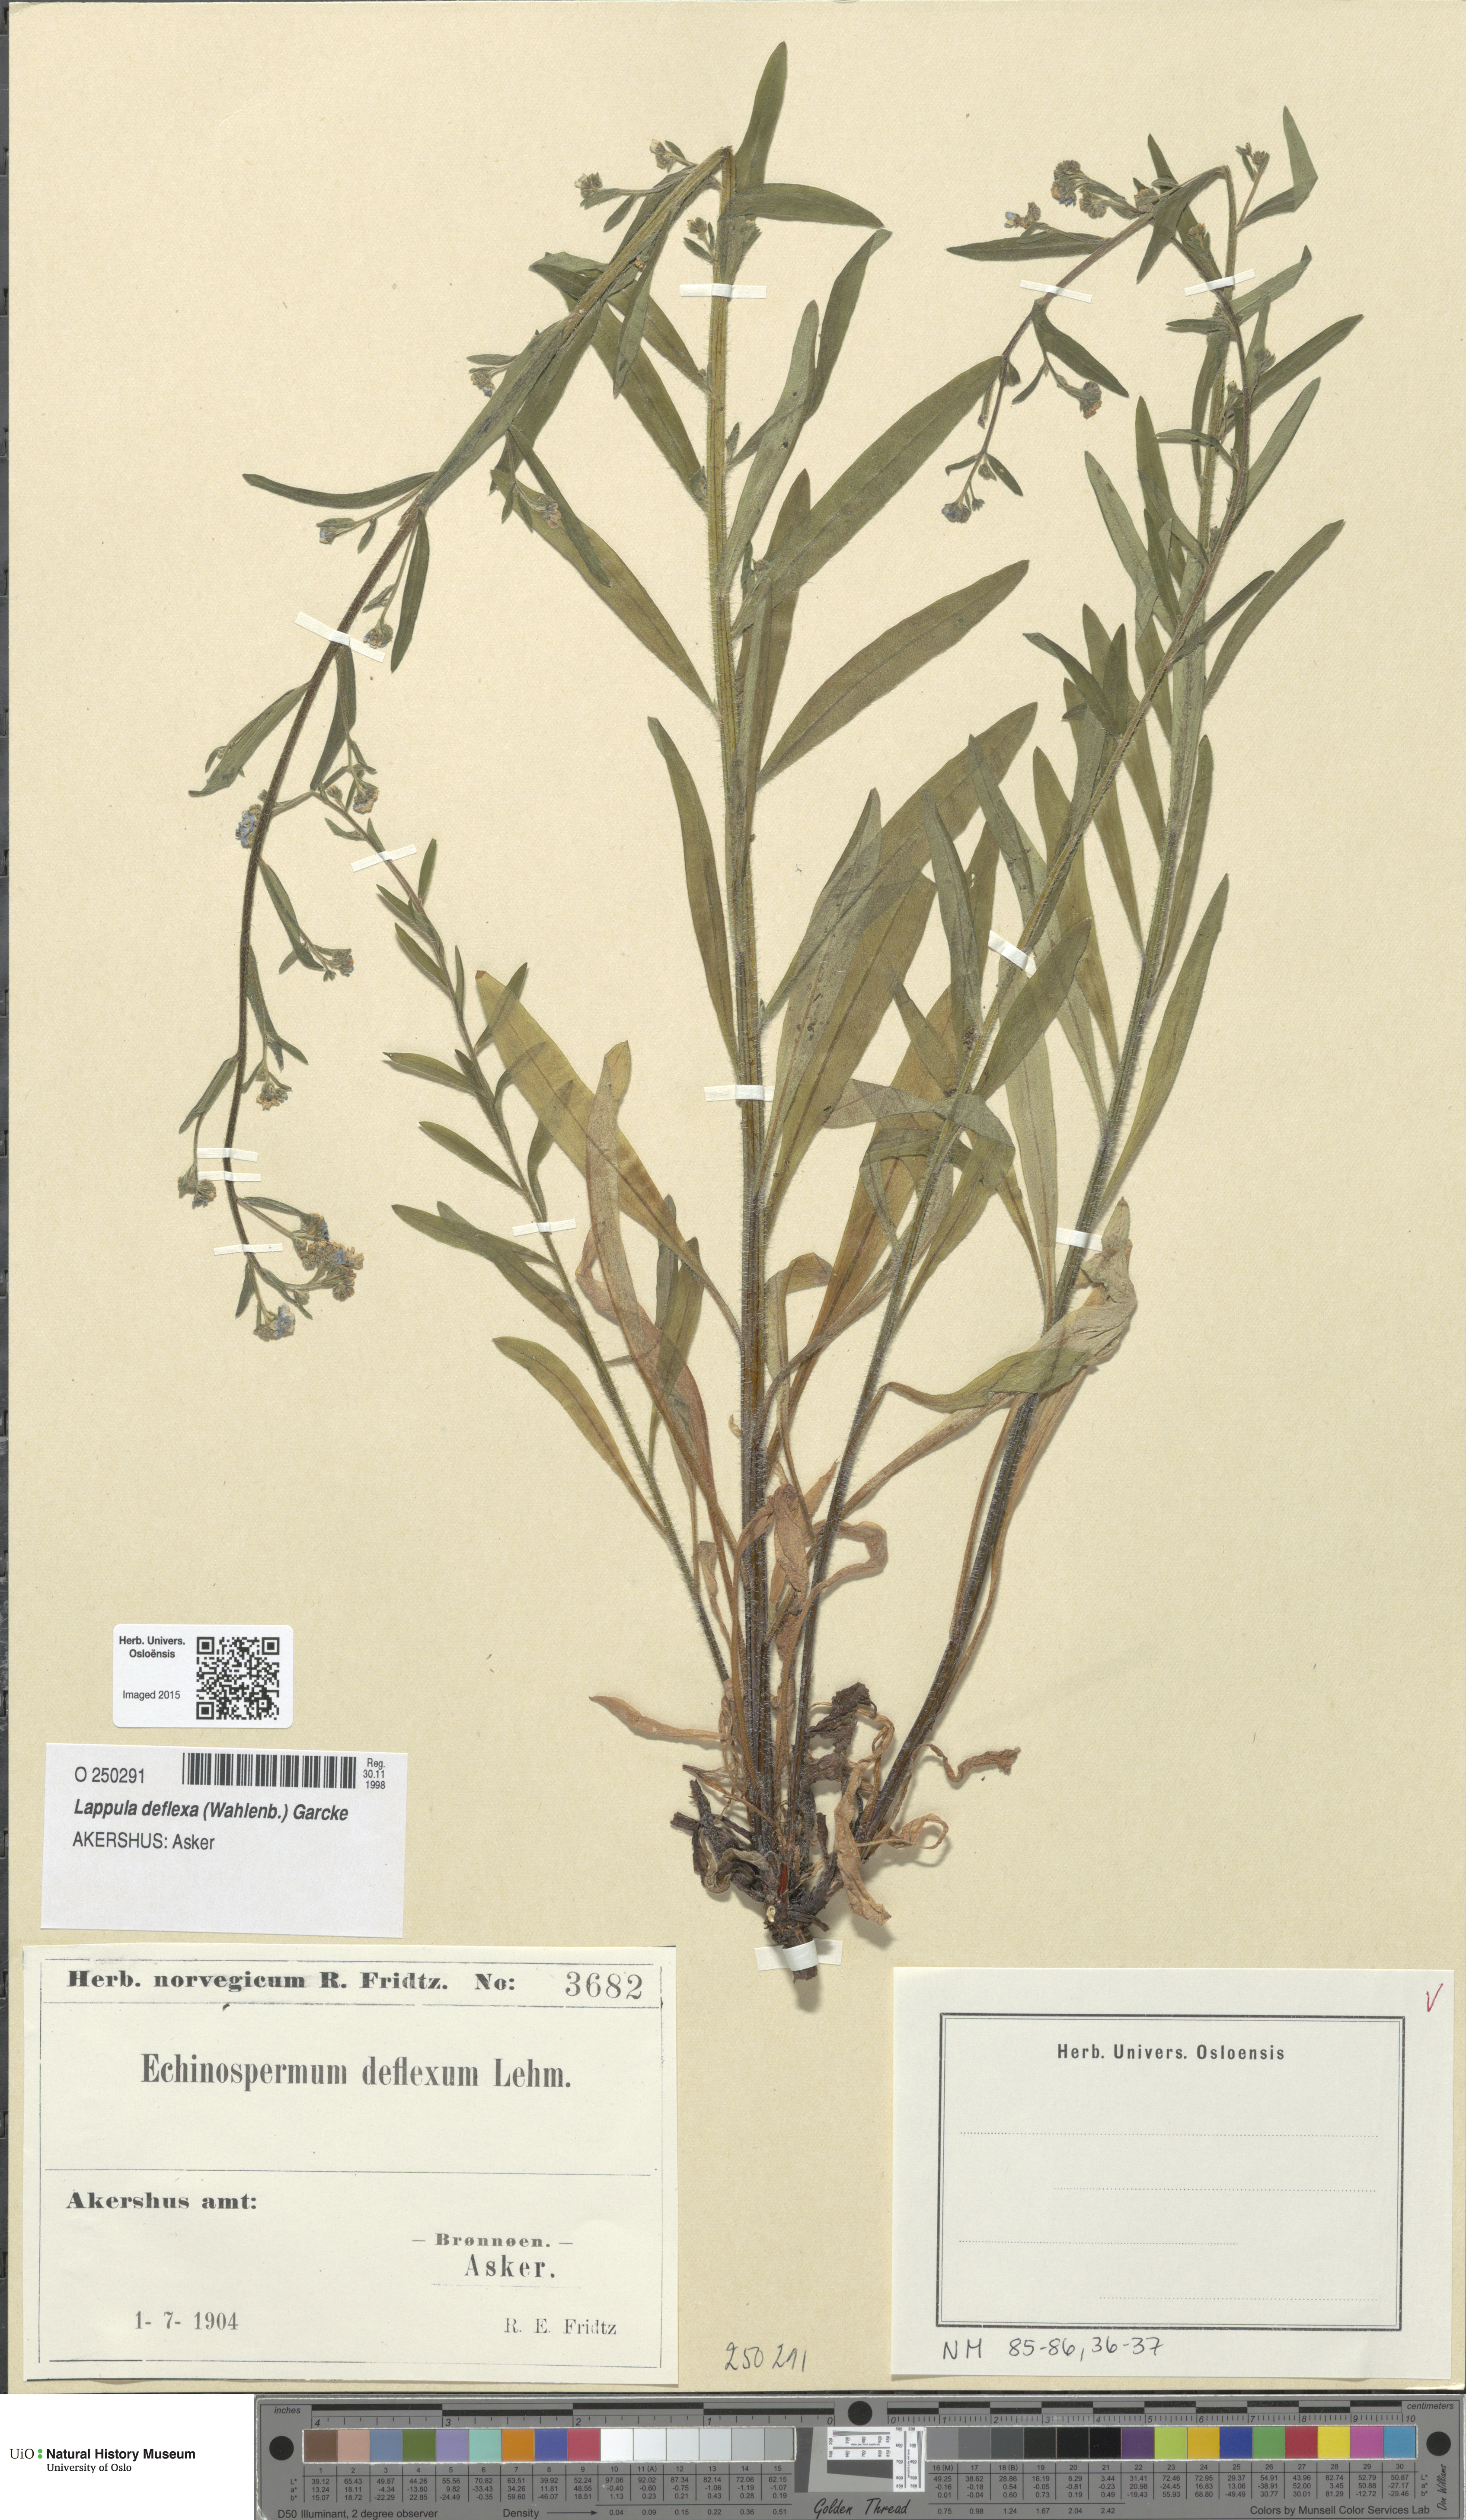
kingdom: Plantae
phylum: Tracheophyta
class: Magnoliopsida
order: Boraginales
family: Boraginaceae
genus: Hackelia
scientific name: Hackelia deflexa
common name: Nodding stickseed
